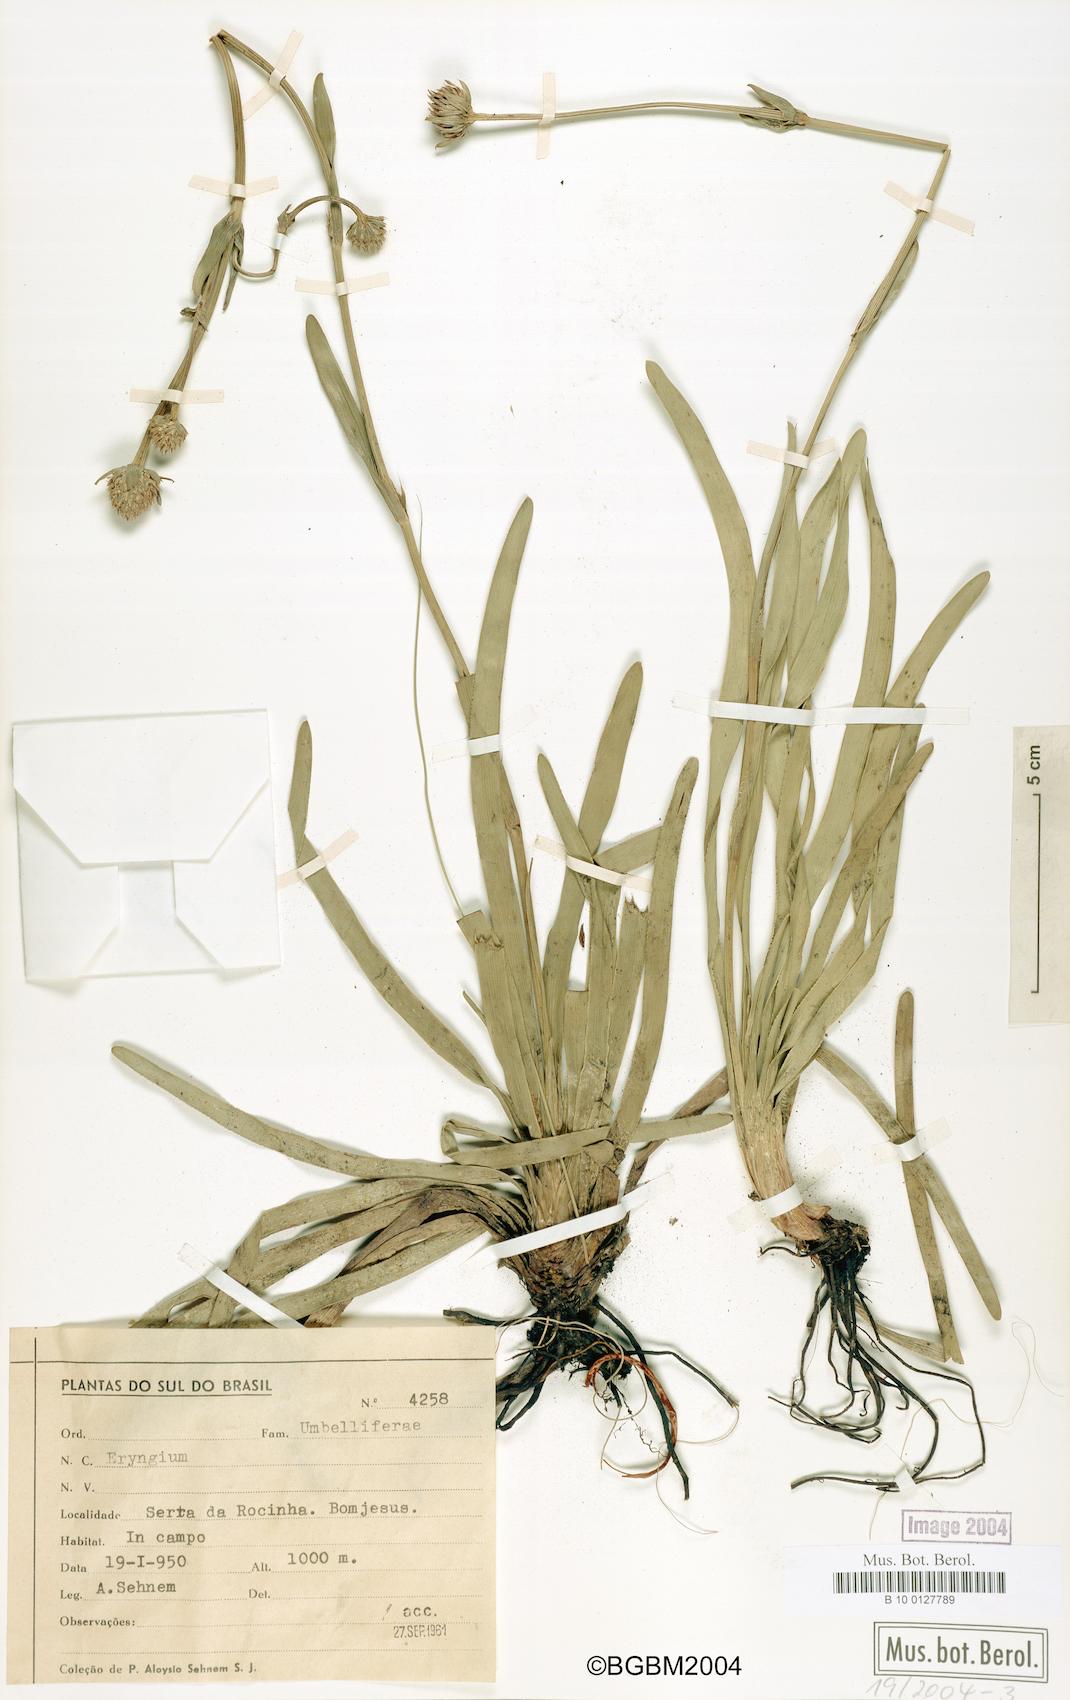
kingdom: Plantae
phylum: Tracheophyta
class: Magnoliopsida
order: Apiales
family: Apiaceae
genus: Eryngium
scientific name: Eryngium
